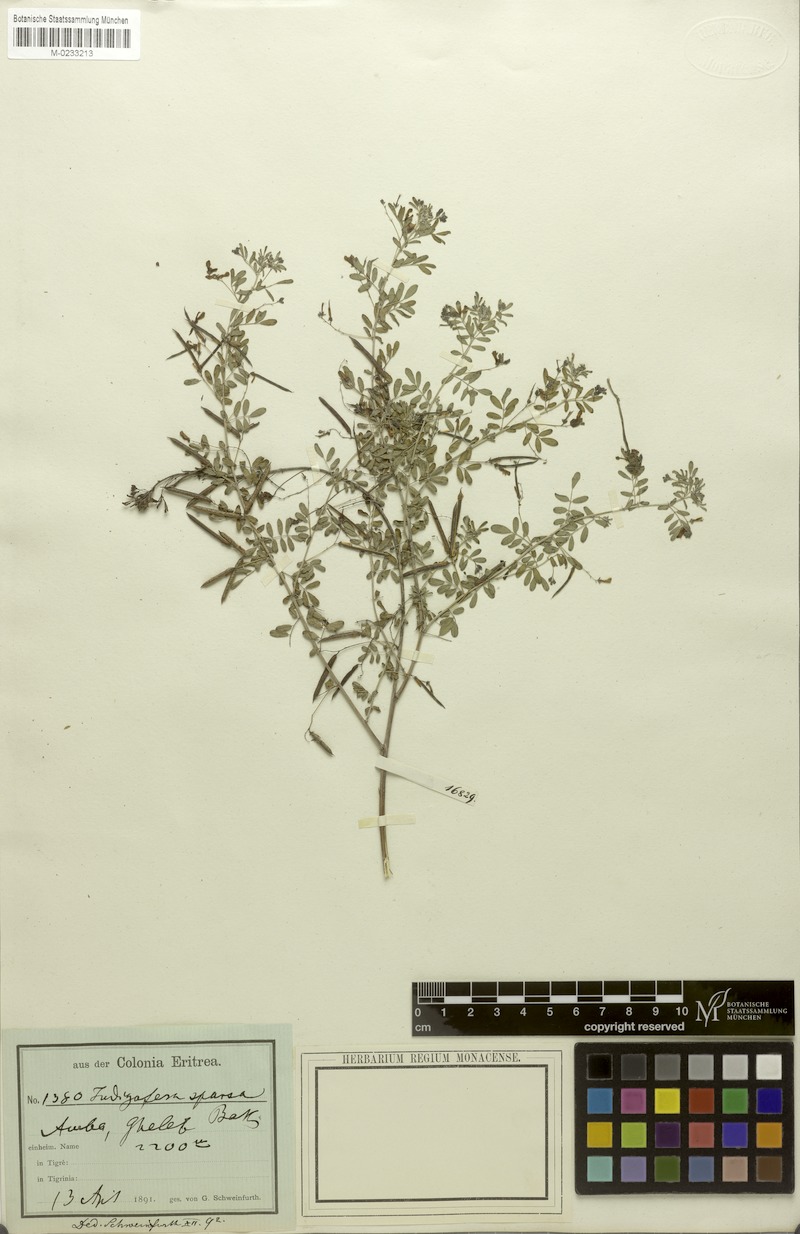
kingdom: Plantae
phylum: Tracheophyta
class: Magnoliopsida
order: Fabales
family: Fabaceae
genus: Indigofera
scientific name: Indigofera sparsa
